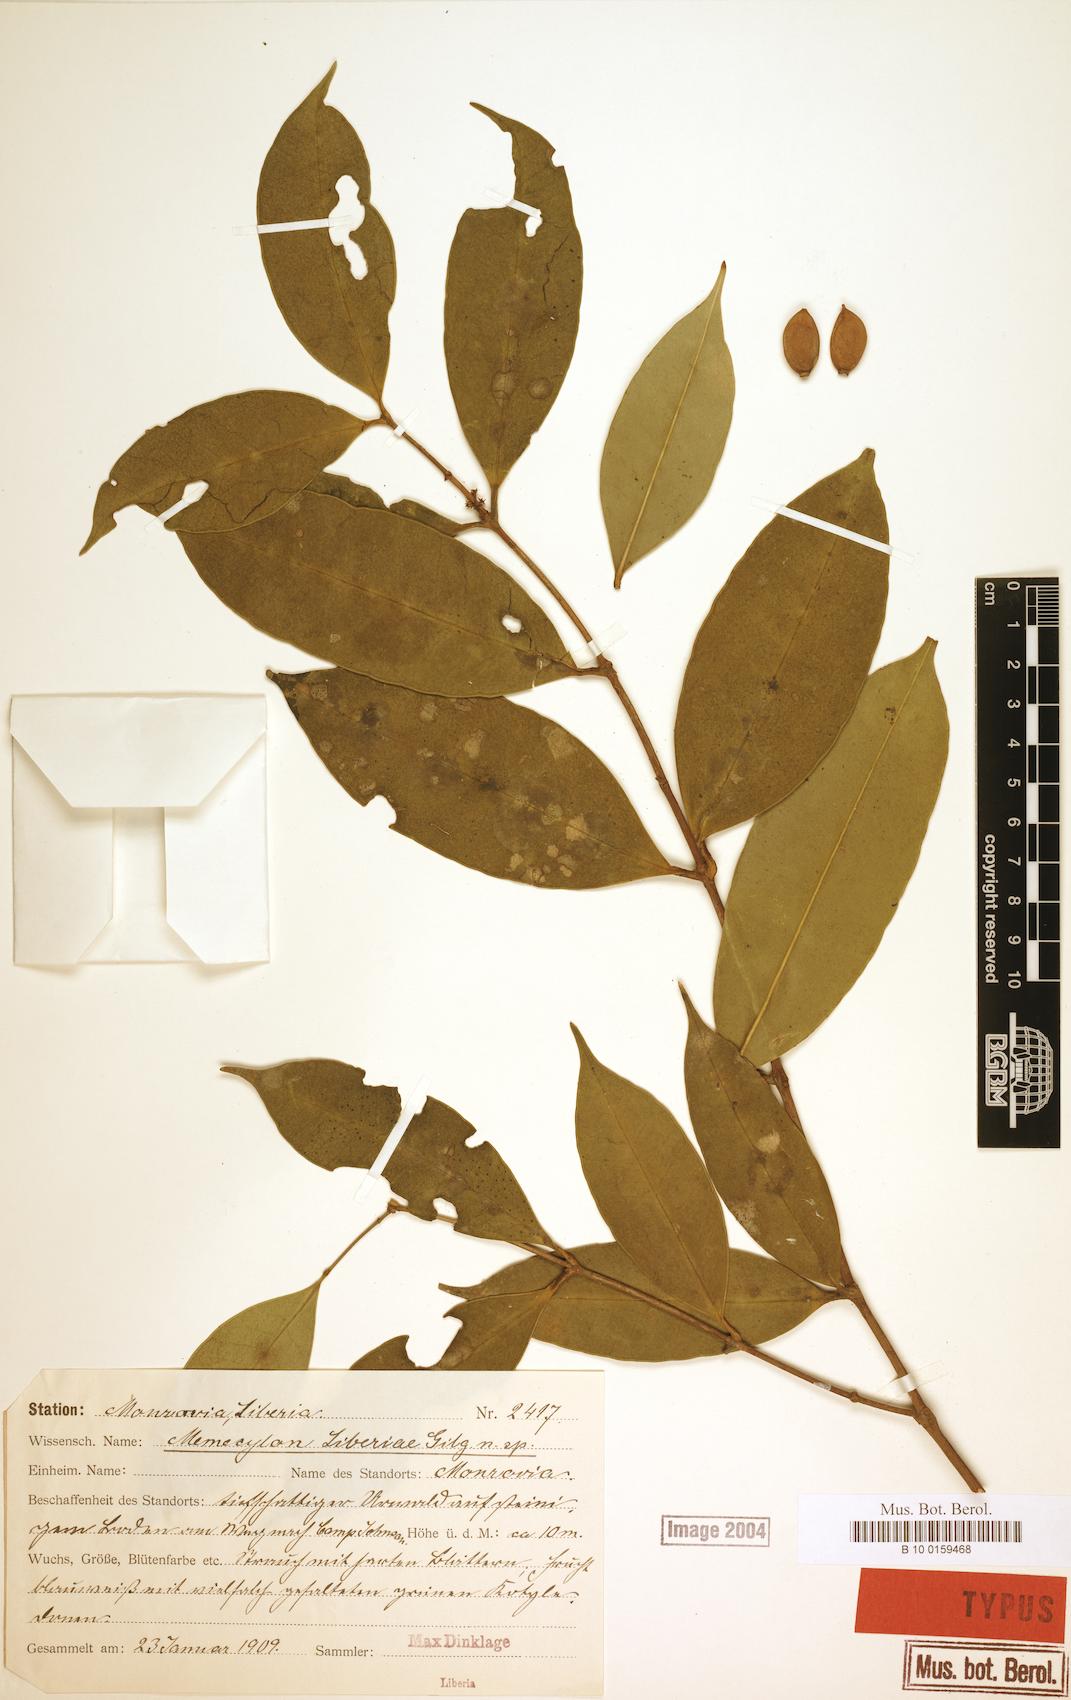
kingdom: Plantae
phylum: Tracheophyta
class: Magnoliopsida
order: Myrtales
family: Melastomataceae
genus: Memecylon
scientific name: Memecylon liberiae
